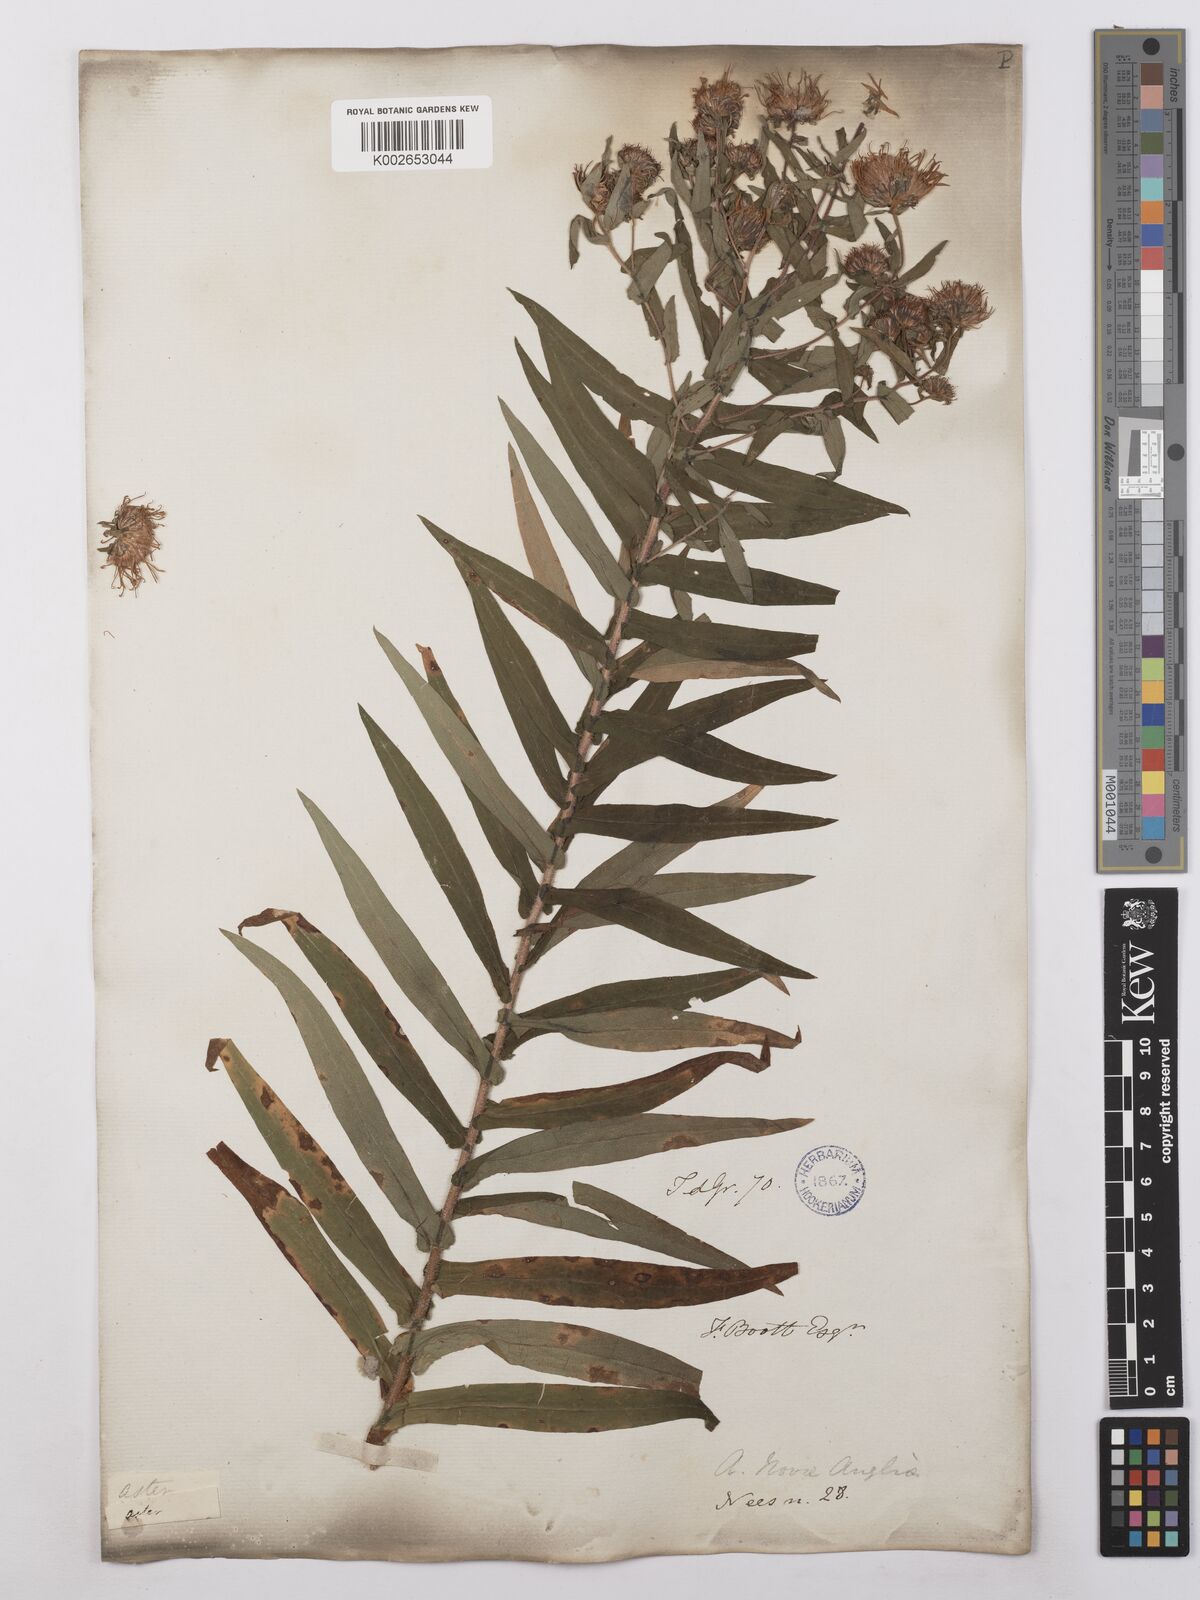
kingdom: Plantae
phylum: Tracheophyta
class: Magnoliopsida
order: Asterales
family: Asteraceae
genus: Symphyotrichum
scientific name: Symphyotrichum novae-angliae
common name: Michaelmas daisy
